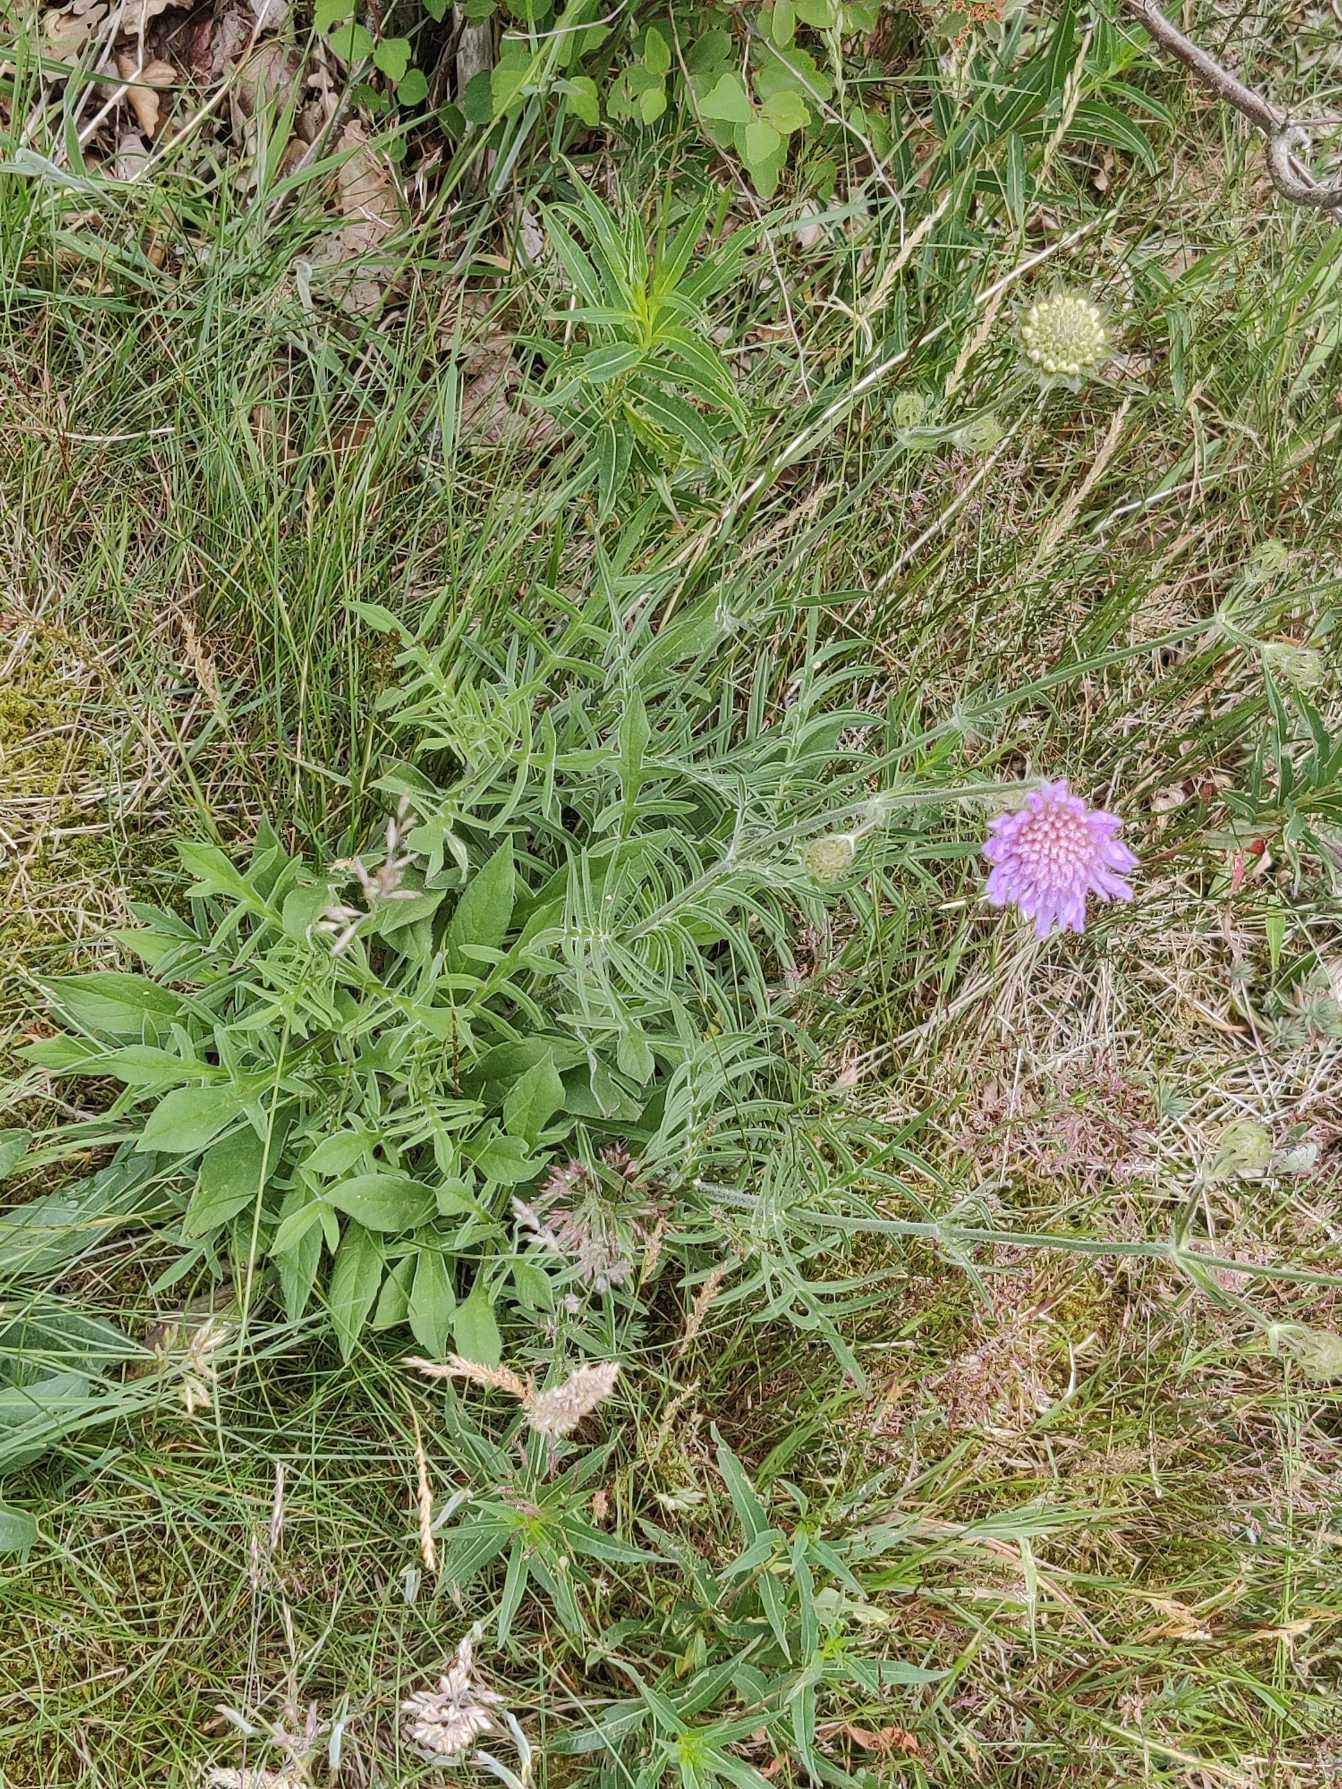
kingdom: Plantae
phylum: Tracheophyta
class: Magnoliopsida
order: Dipsacales
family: Caprifoliaceae
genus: Knautia
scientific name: Knautia arvensis
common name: Blåhat
